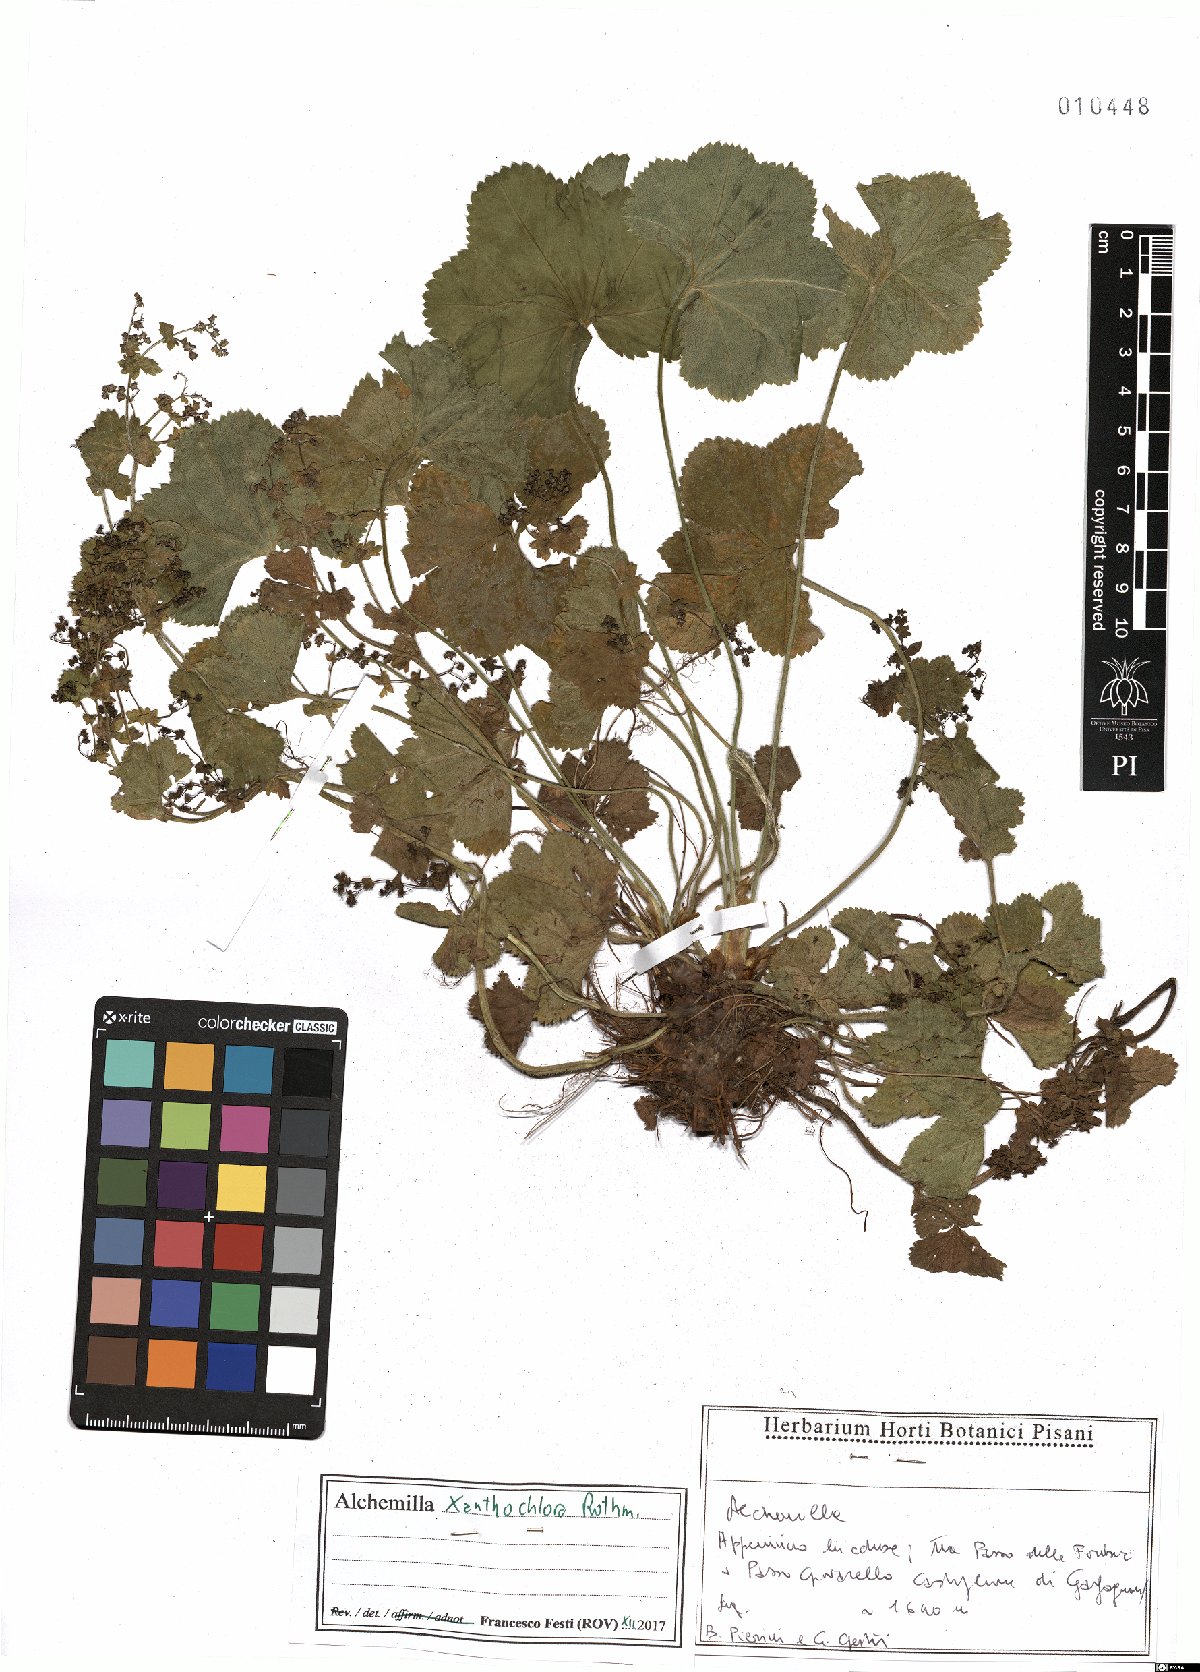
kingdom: Plantae
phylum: Tracheophyta
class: Magnoliopsida
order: Rosales
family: Rosaceae
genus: Alchemilla
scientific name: Alchemilla xanthochlora
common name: Intermediate lady's-mantle
